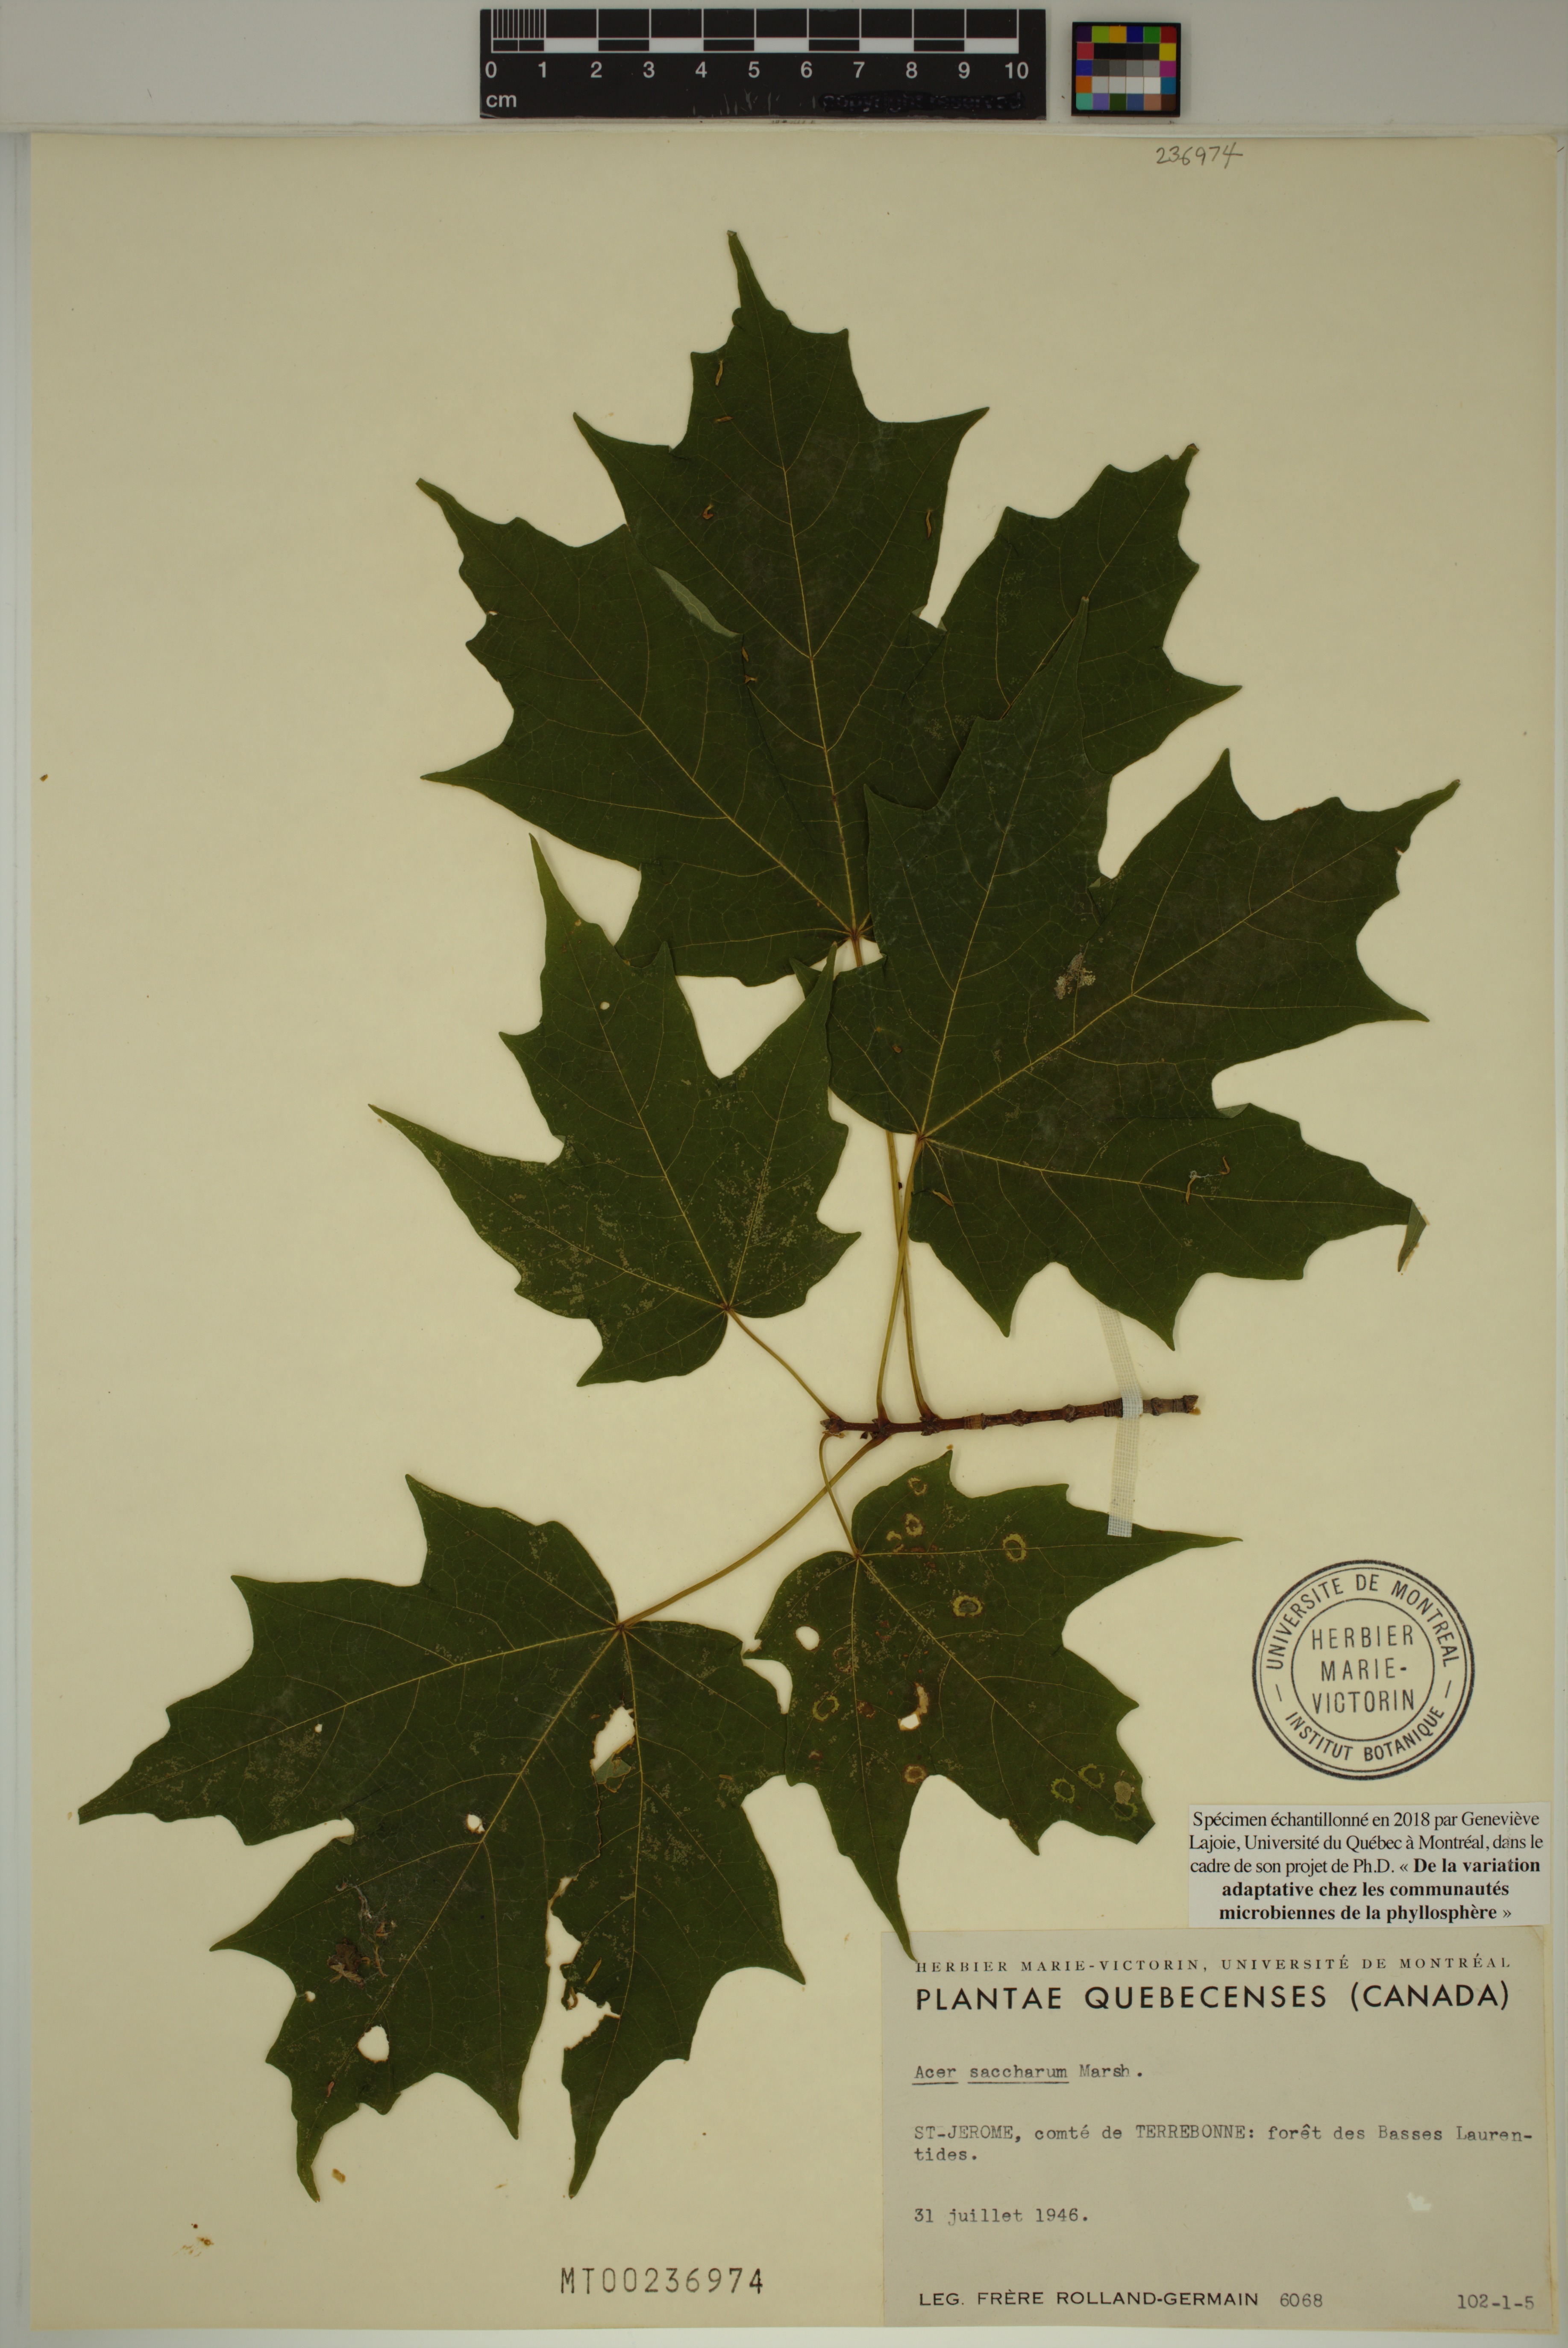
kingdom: Plantae
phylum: Tracheophyta
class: Magnoliopsida
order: Sapindales
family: Sapindaceae
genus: Acer
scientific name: Acer saccharum
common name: Sugar maple
